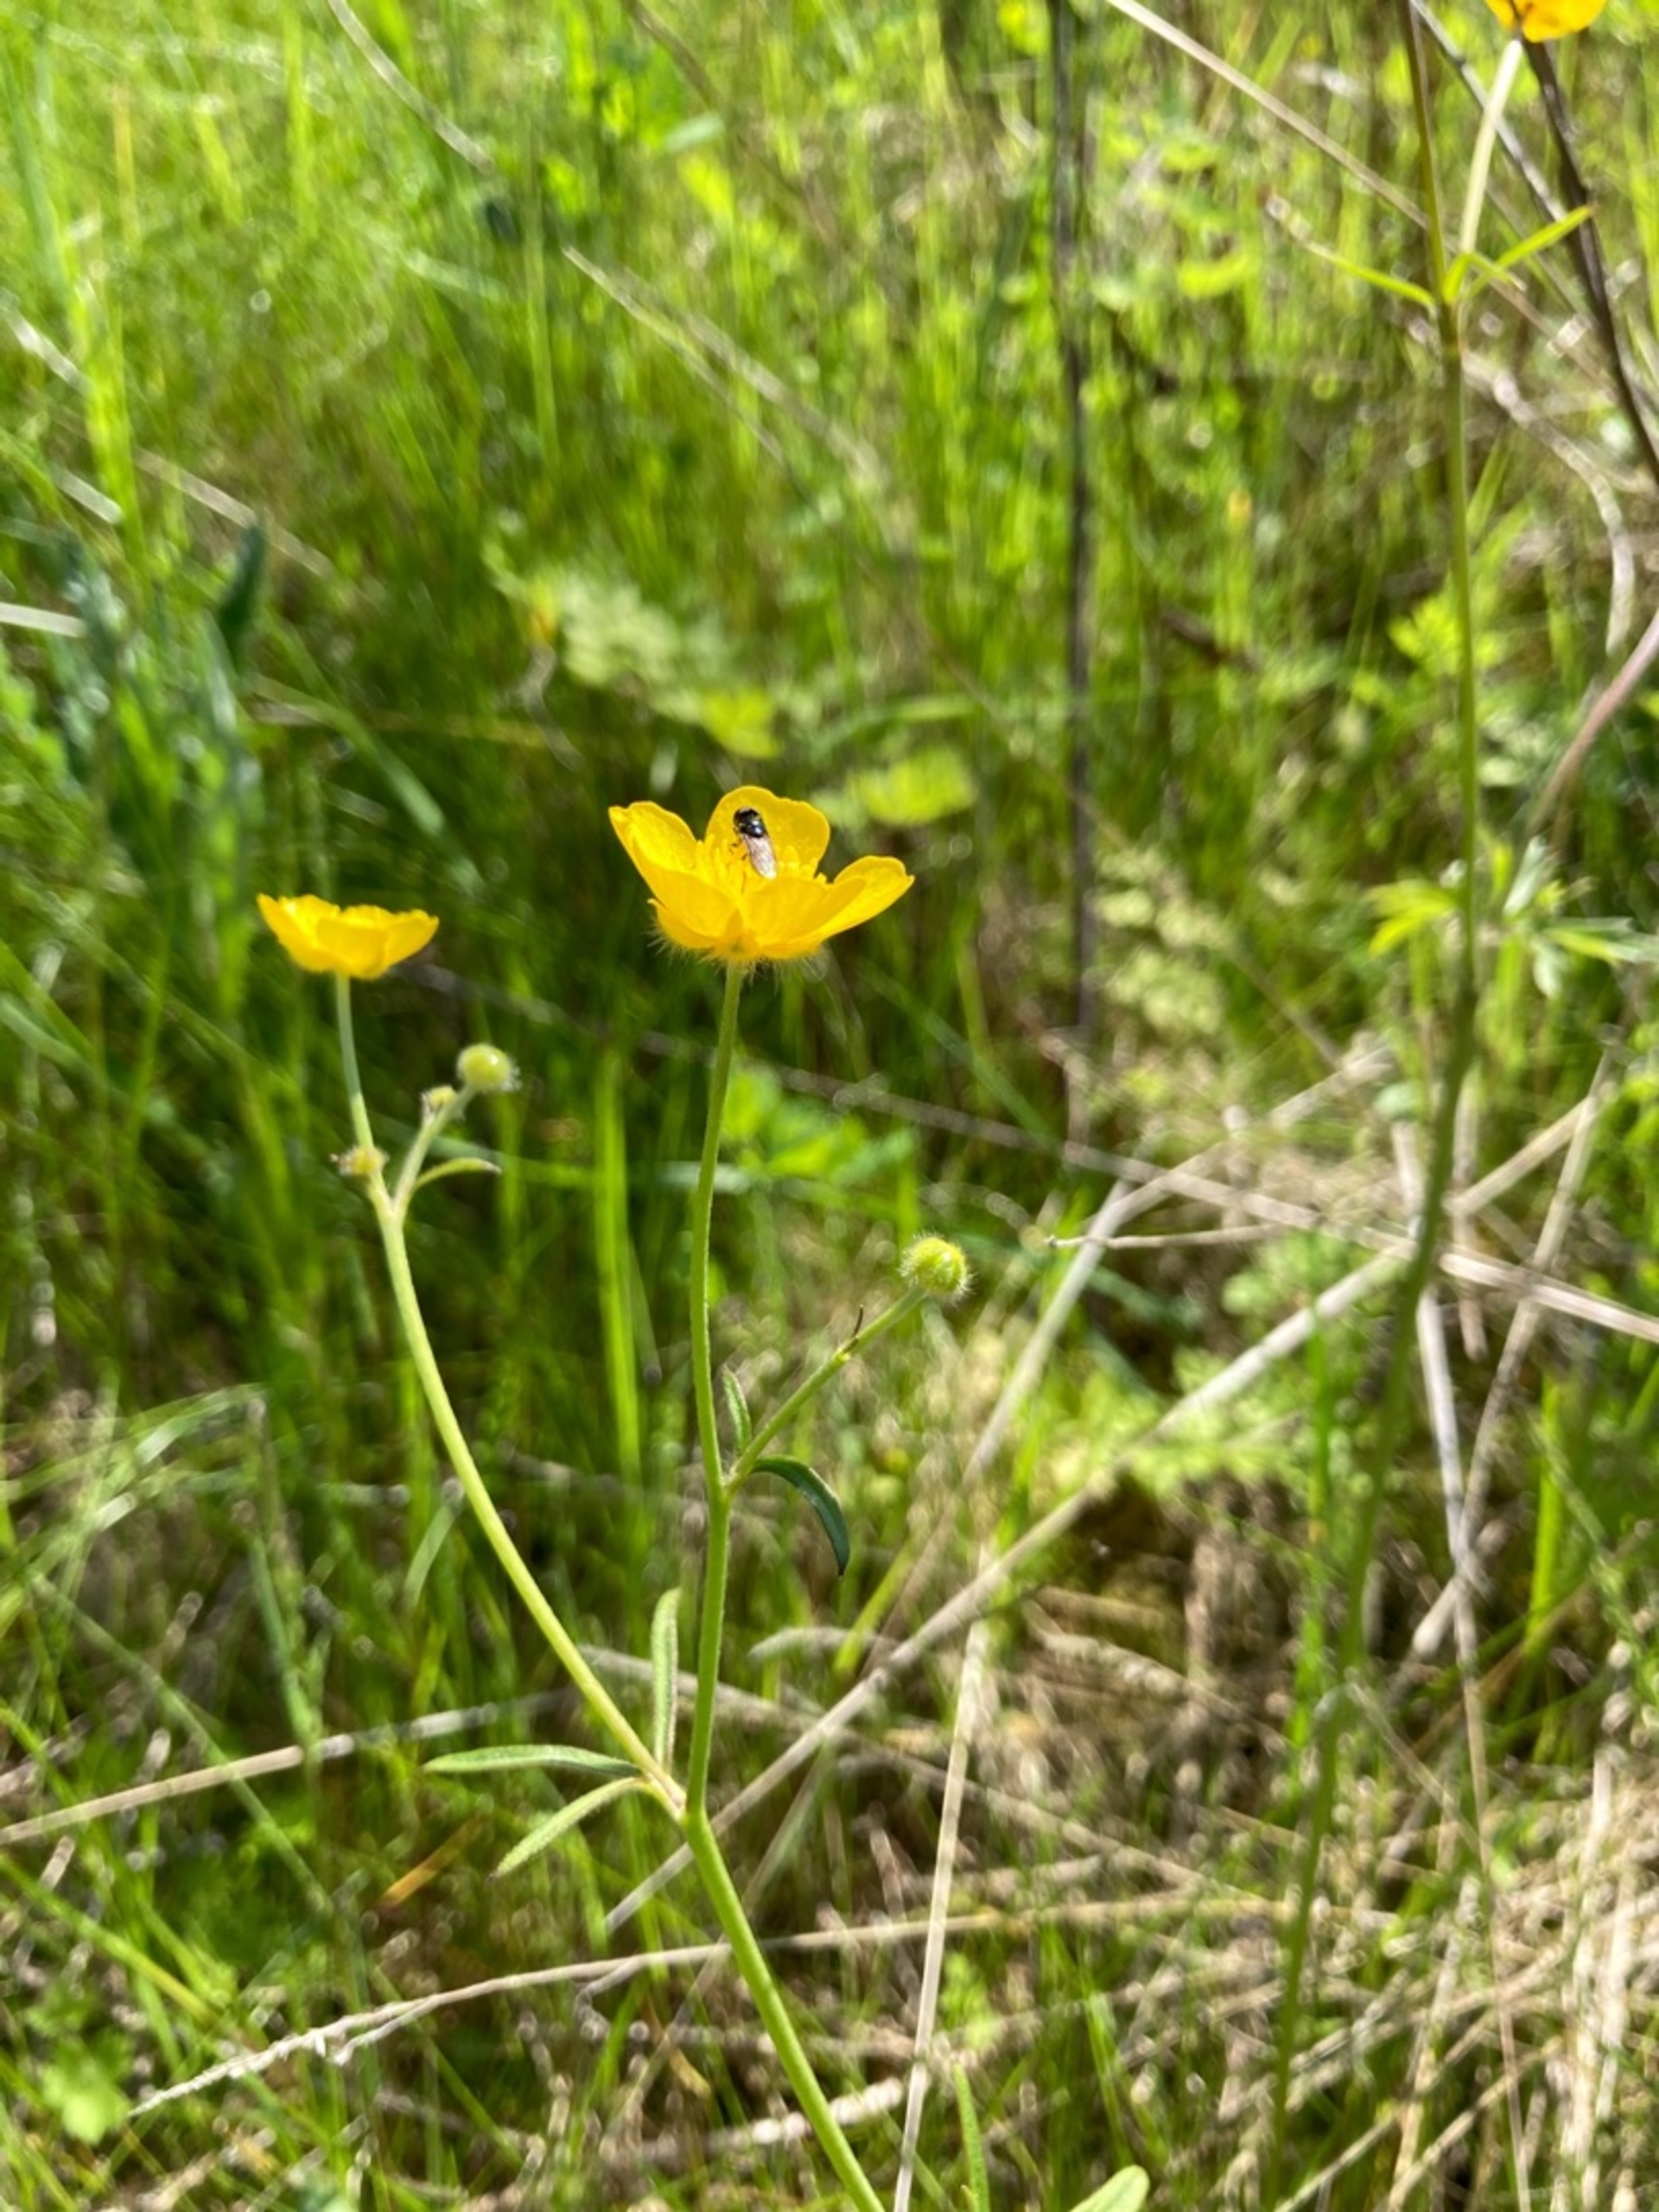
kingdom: Plantae
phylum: Tracheophyta
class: Magnoliopsida
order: Ranunculales
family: Ranunculaceae
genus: Ranunculus
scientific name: Ranunculus acris
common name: Bidende ranunkel
